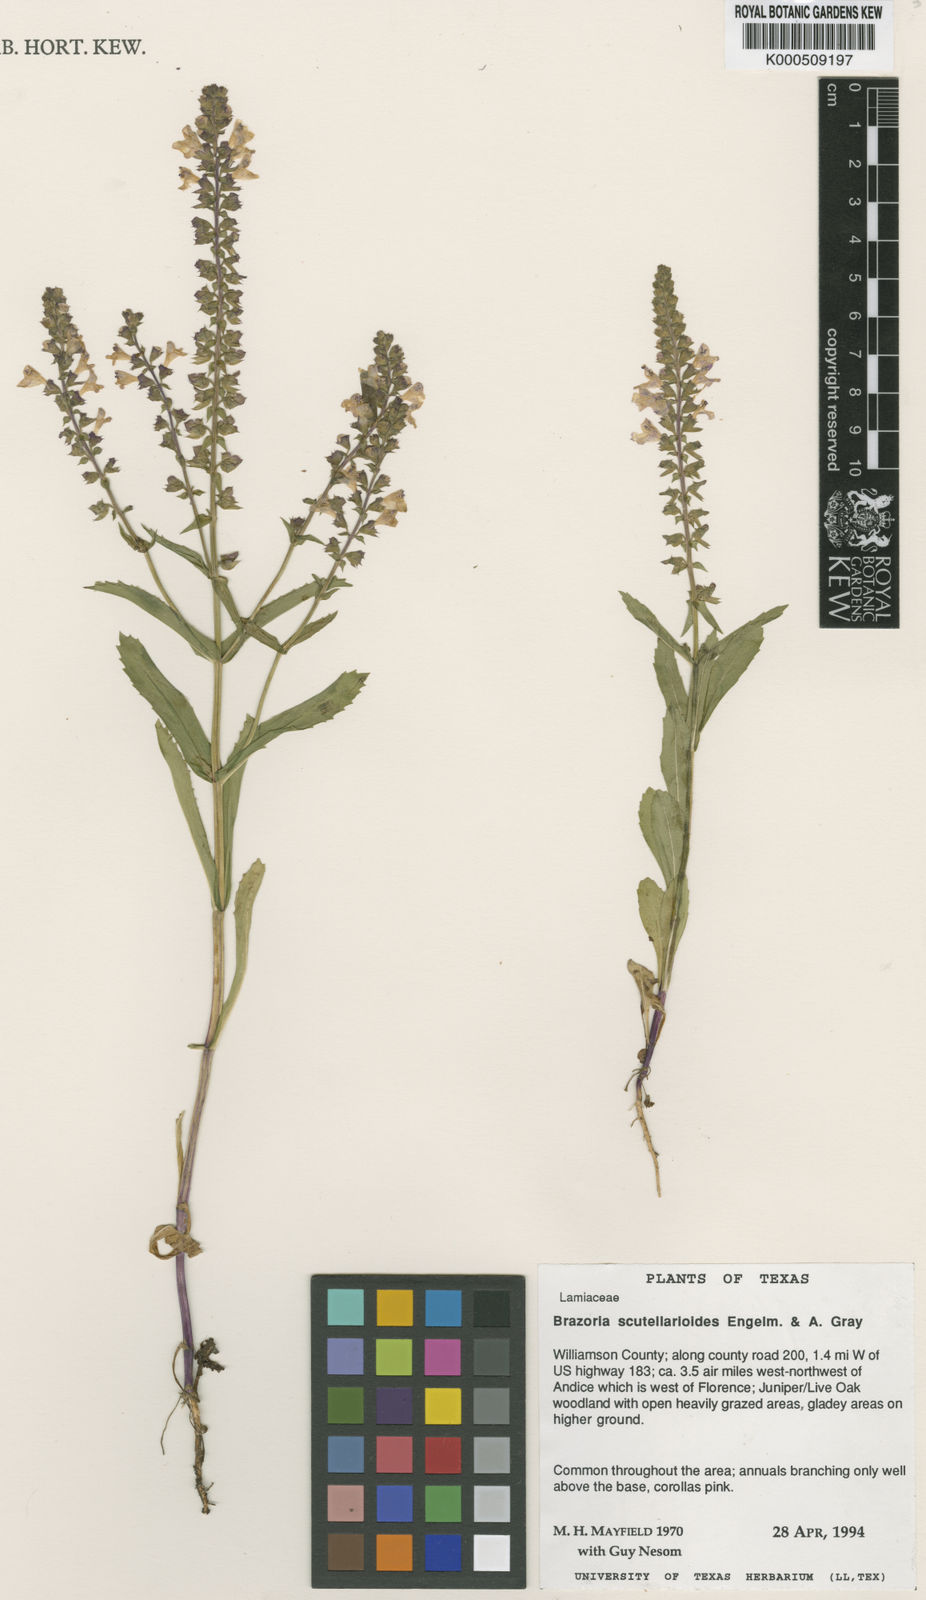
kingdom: Plantae
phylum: Tracheophyta
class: Magnoliopsida
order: Lamiales
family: Lamiaceae
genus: Warnockia
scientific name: Warnockia scutellarioides
